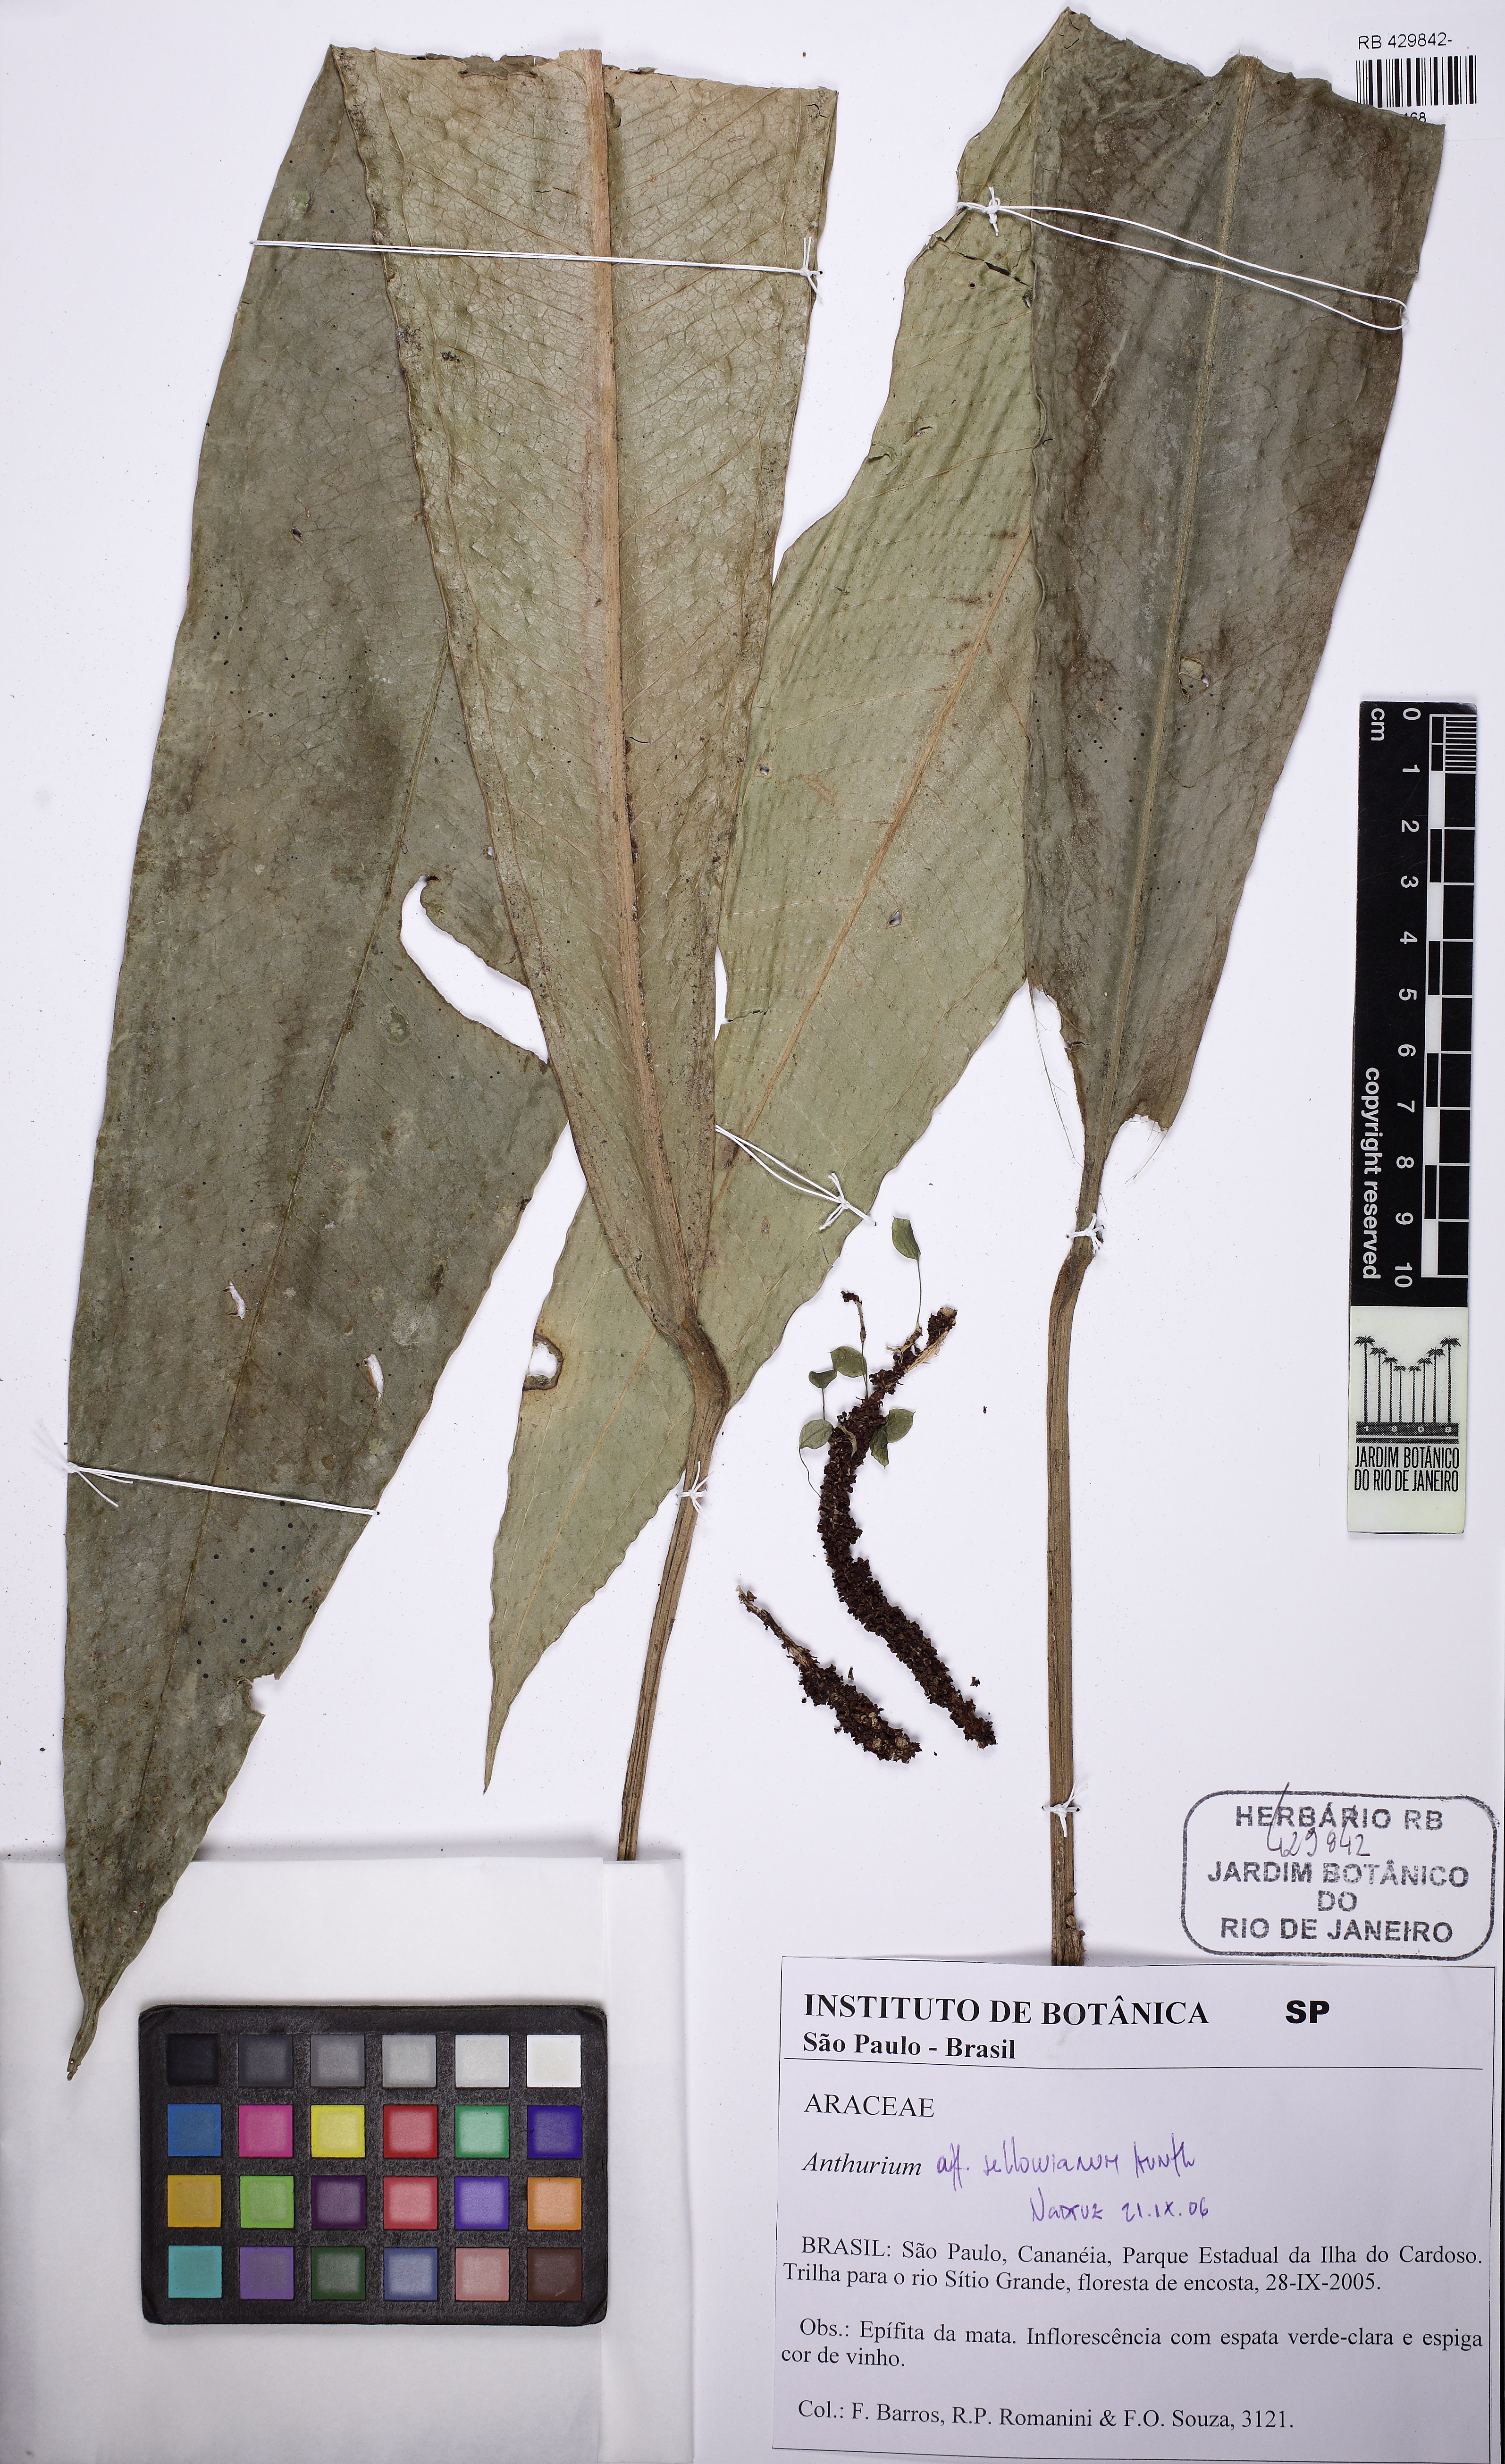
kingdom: Plantae
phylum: Tracheophyta
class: Liliopsida
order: Alismatales
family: Araceae
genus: Anthurium
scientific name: Anthurium sellowianum
